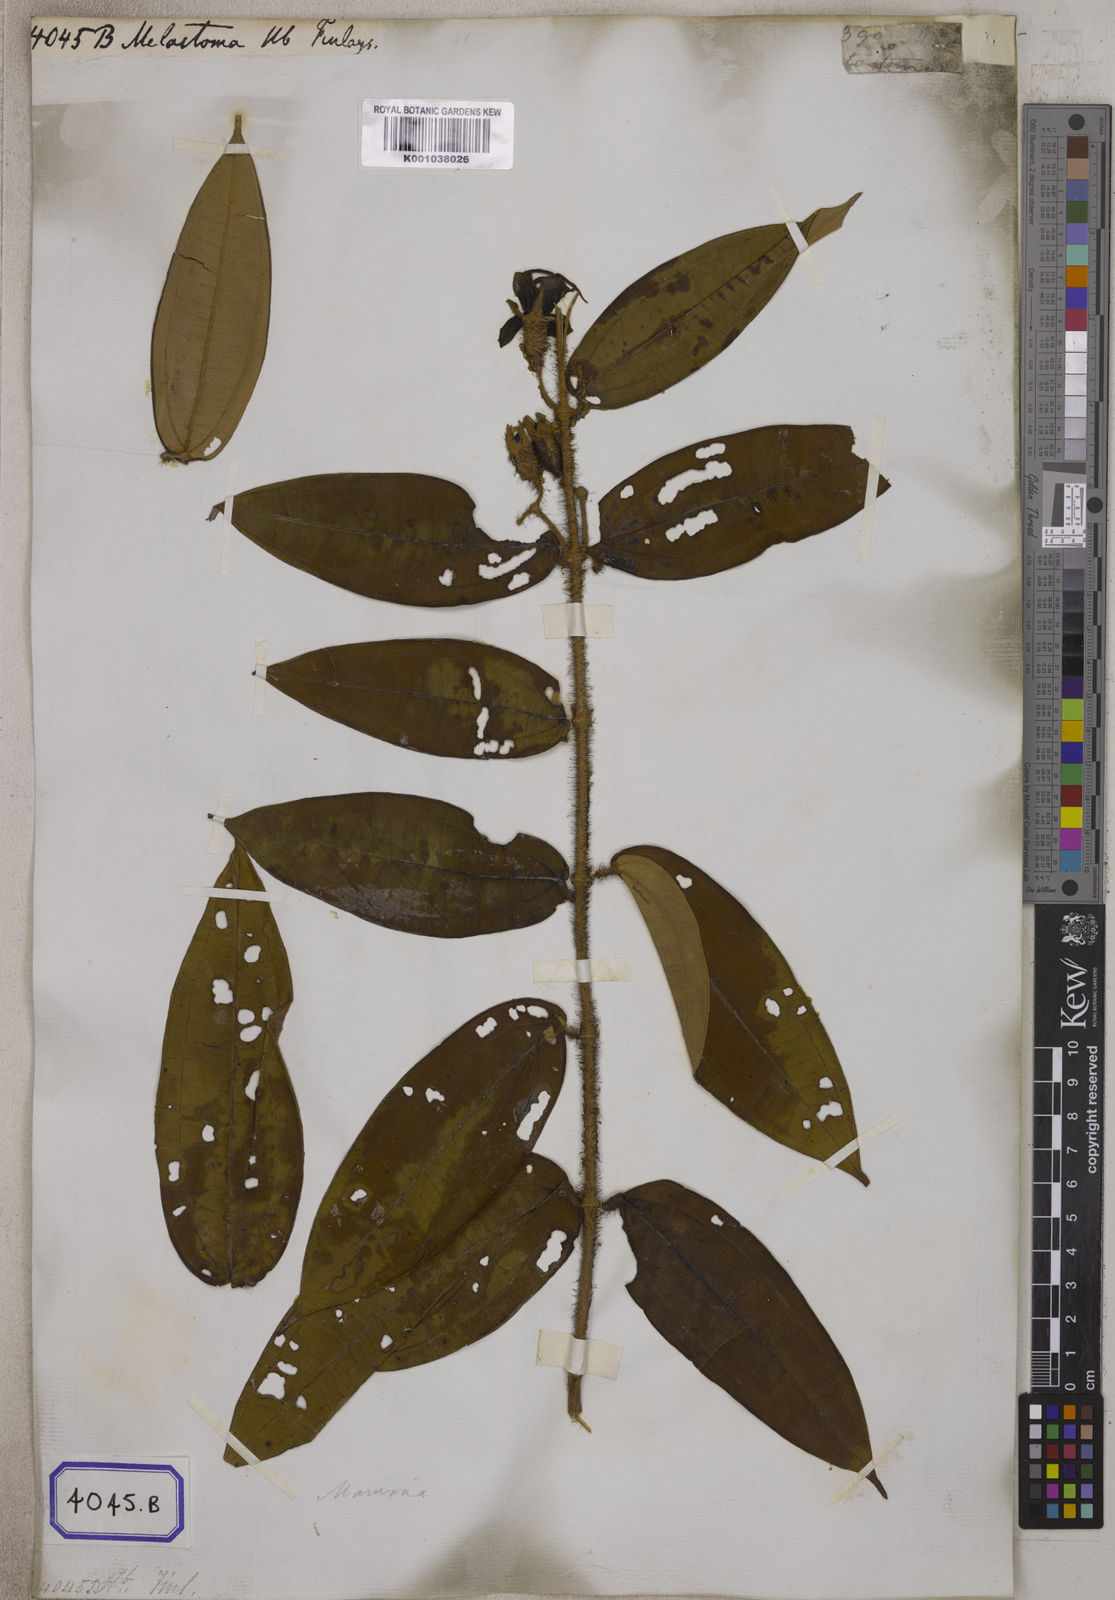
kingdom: Plantae
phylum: Tracheophyta
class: Magnoliopsida
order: Myrtales
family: Melastomataceae
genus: Osbeckia
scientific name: Osbeckia virgata
